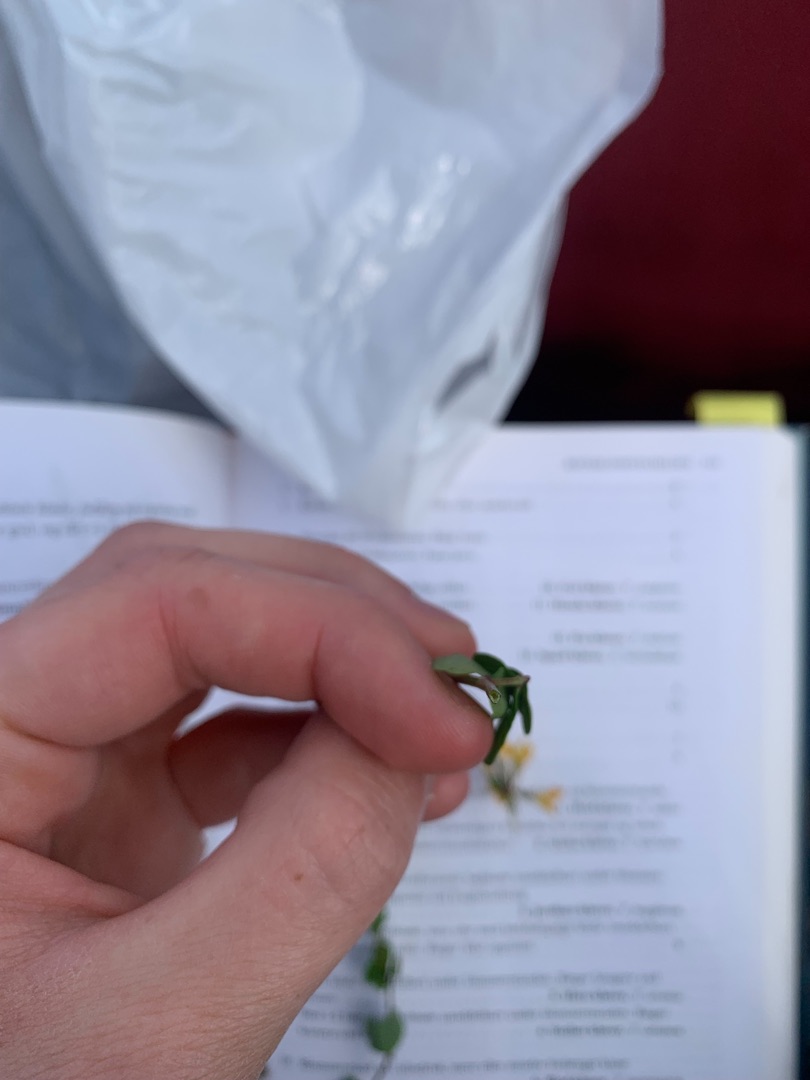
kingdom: Plantae
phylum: Tracheophyta
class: Magnoliopsida
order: Fabales
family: Fabaceae
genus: Lotus
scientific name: Lotus pedunculatus
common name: Sump-kællingetand
